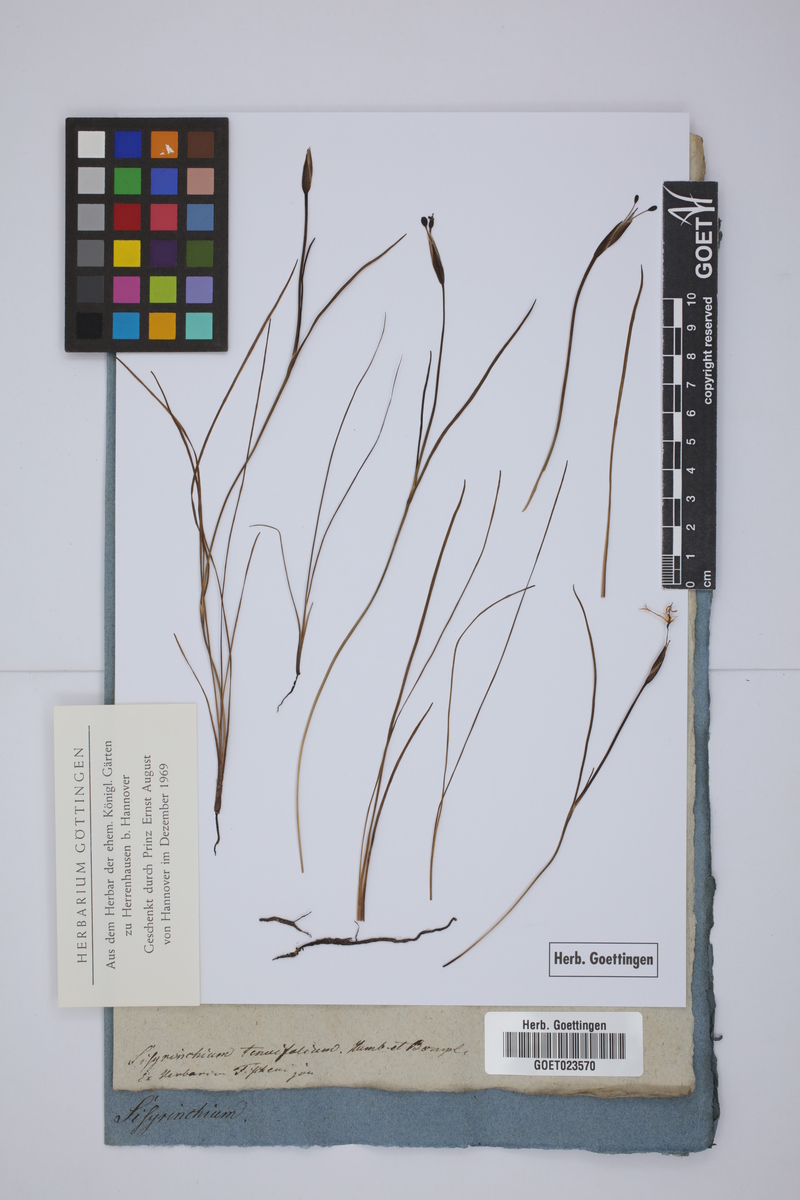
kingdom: Plantae
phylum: Tracheophyta
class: Liliopsida
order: Asparagales
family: Iridaceae
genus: Sisyrinchium
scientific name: Sisyrinchium tenuifolium
